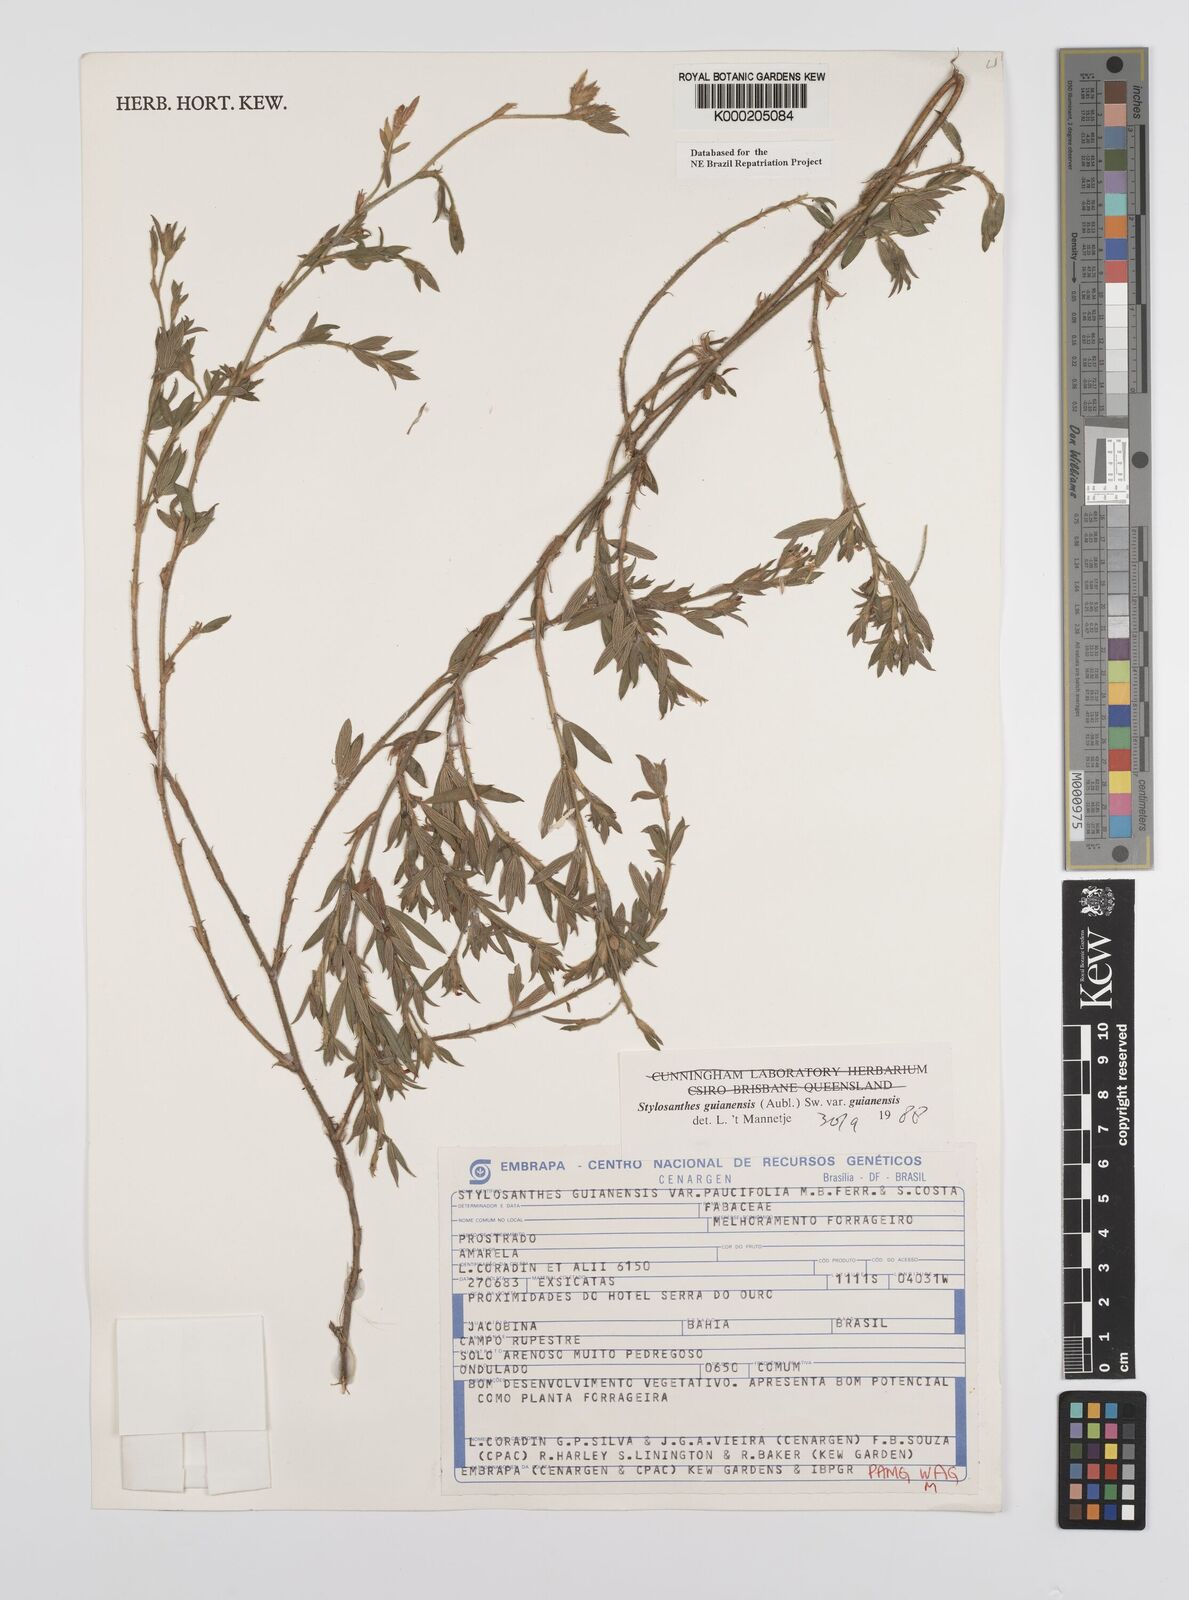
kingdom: Plantae
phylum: Tracheophyta
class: Magnoliopsida
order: Fabales
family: Fabaceae
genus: Stylosanthes
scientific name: Stylosanthes guianensis
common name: Pencil flower
